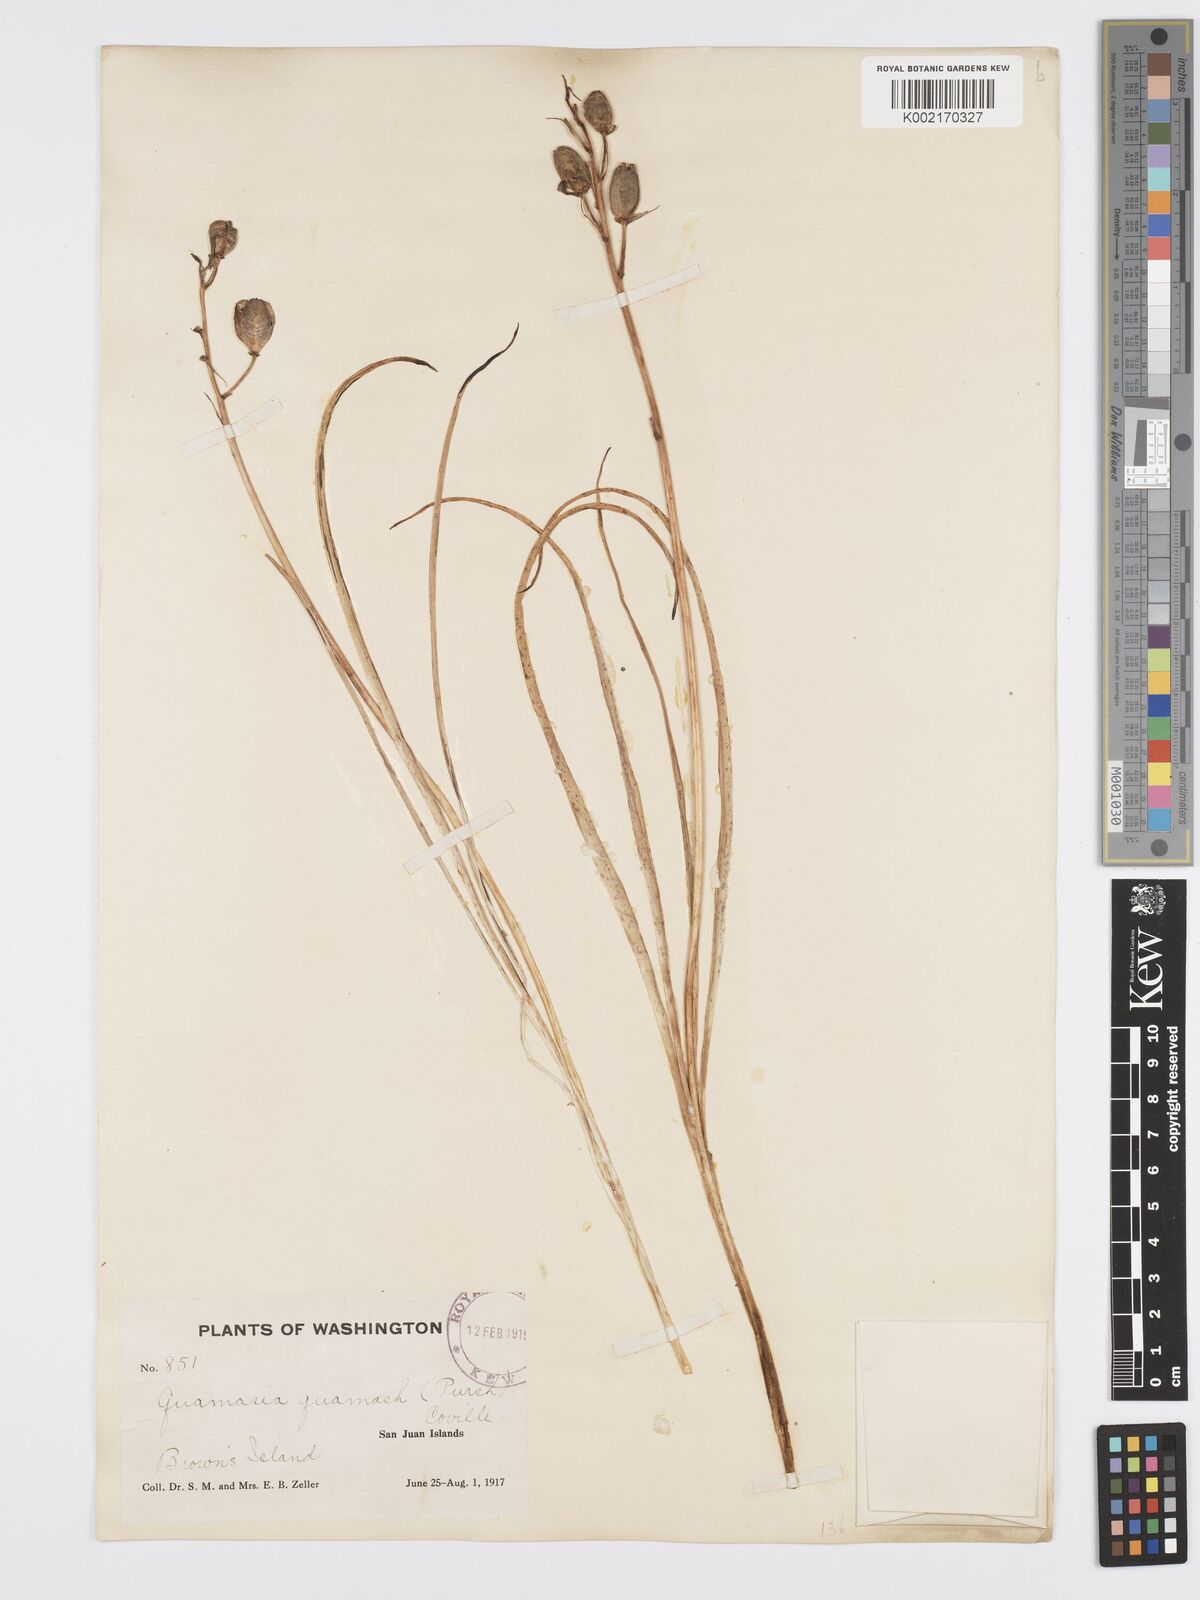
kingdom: Plantae
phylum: Tracheophyta
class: Liliopsida
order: Asparagales
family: Asparagaceae
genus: Camassia
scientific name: Camassia quamash
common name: Common camas
